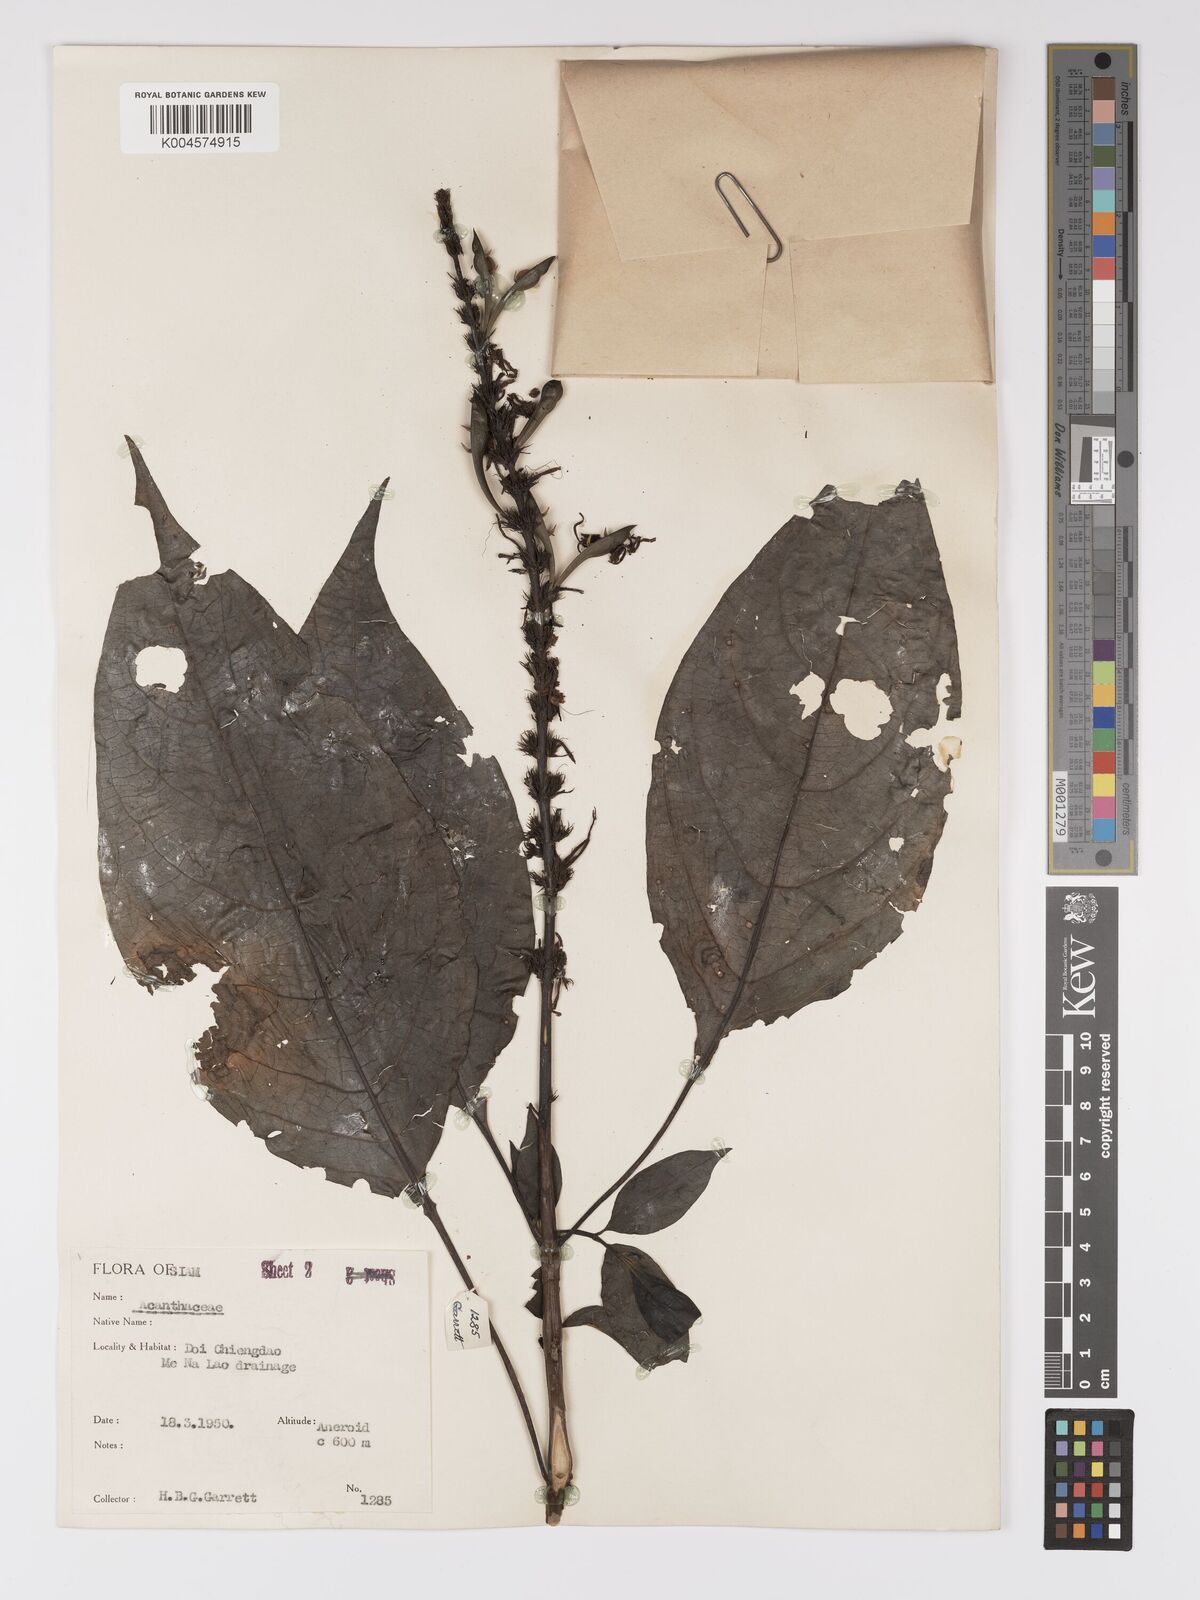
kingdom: Plantae
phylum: Tracheophyta
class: Magnoliopsida
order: Lamiales
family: Acanthaceae
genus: Pseuderanthemum
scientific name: Pseuderanthemum
